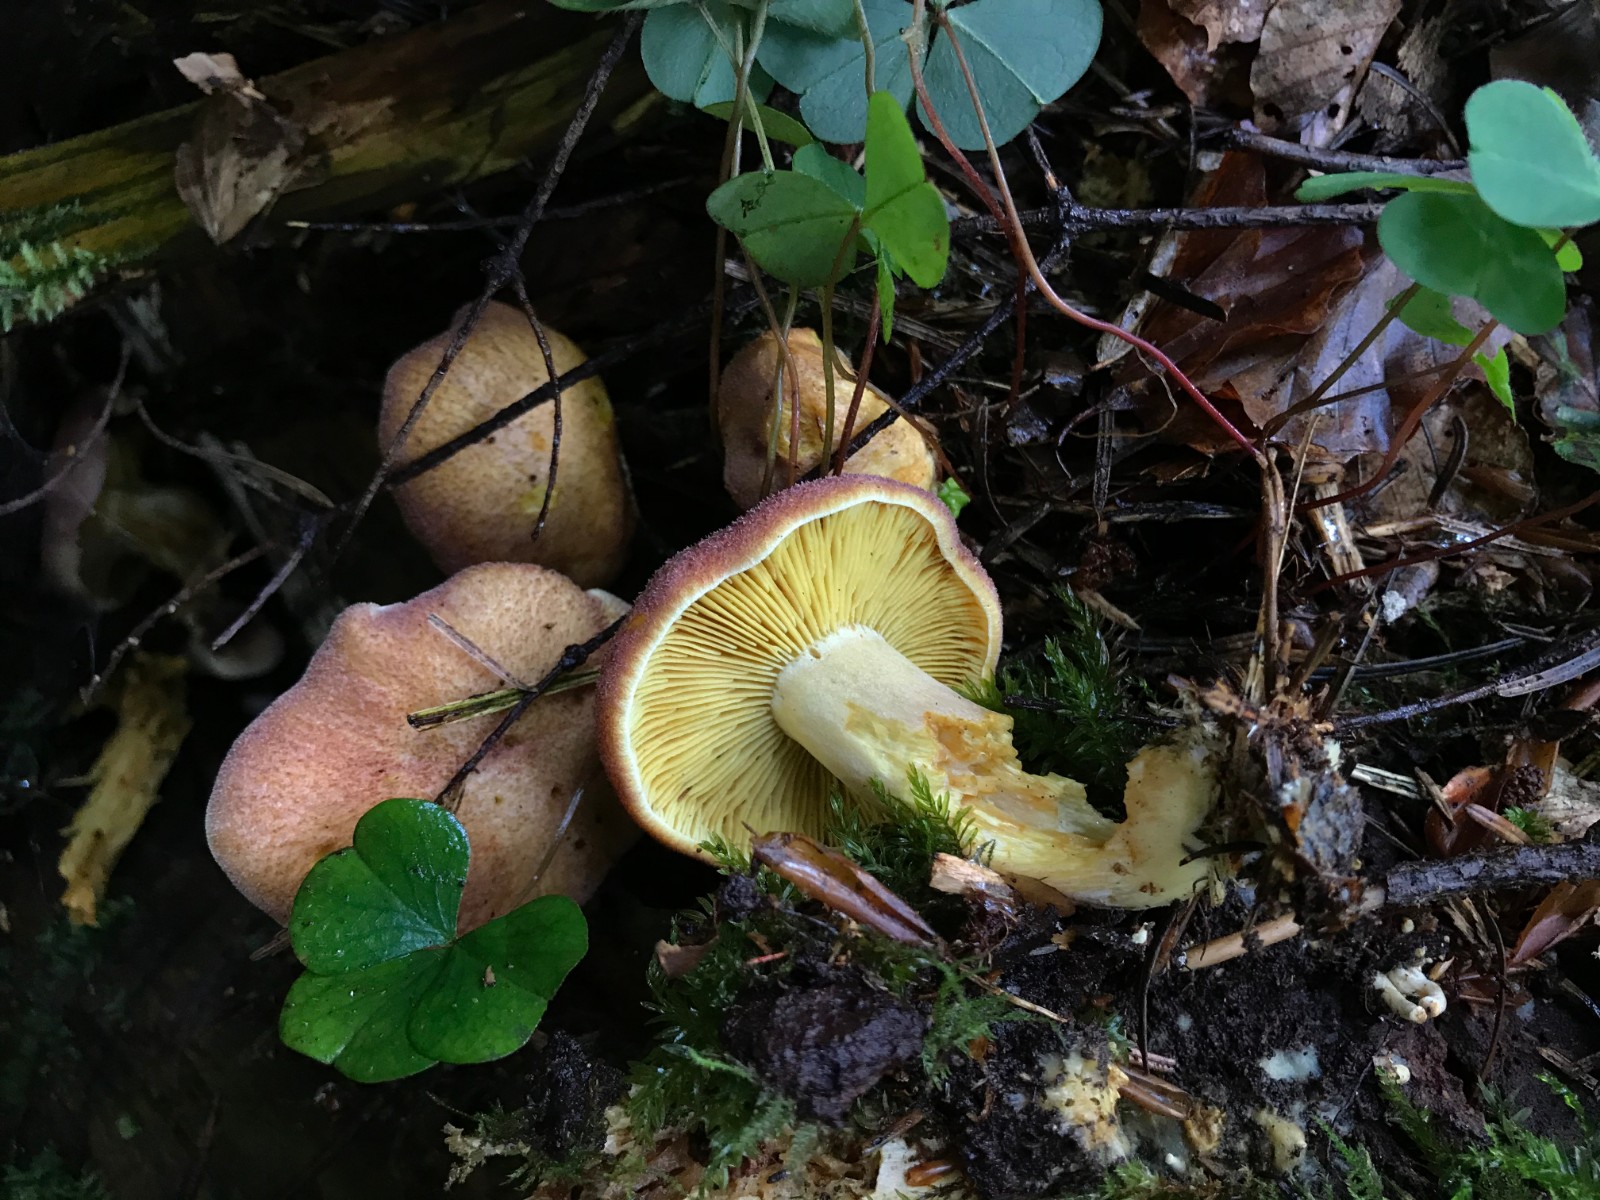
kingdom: Fungi
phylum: Basidiomycota
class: Agaricomycetes
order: Agaricales
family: Tricholomataceae
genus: Tricholomopsis
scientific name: Tricholomopsis rutilans
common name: purpur-væbnerhat
